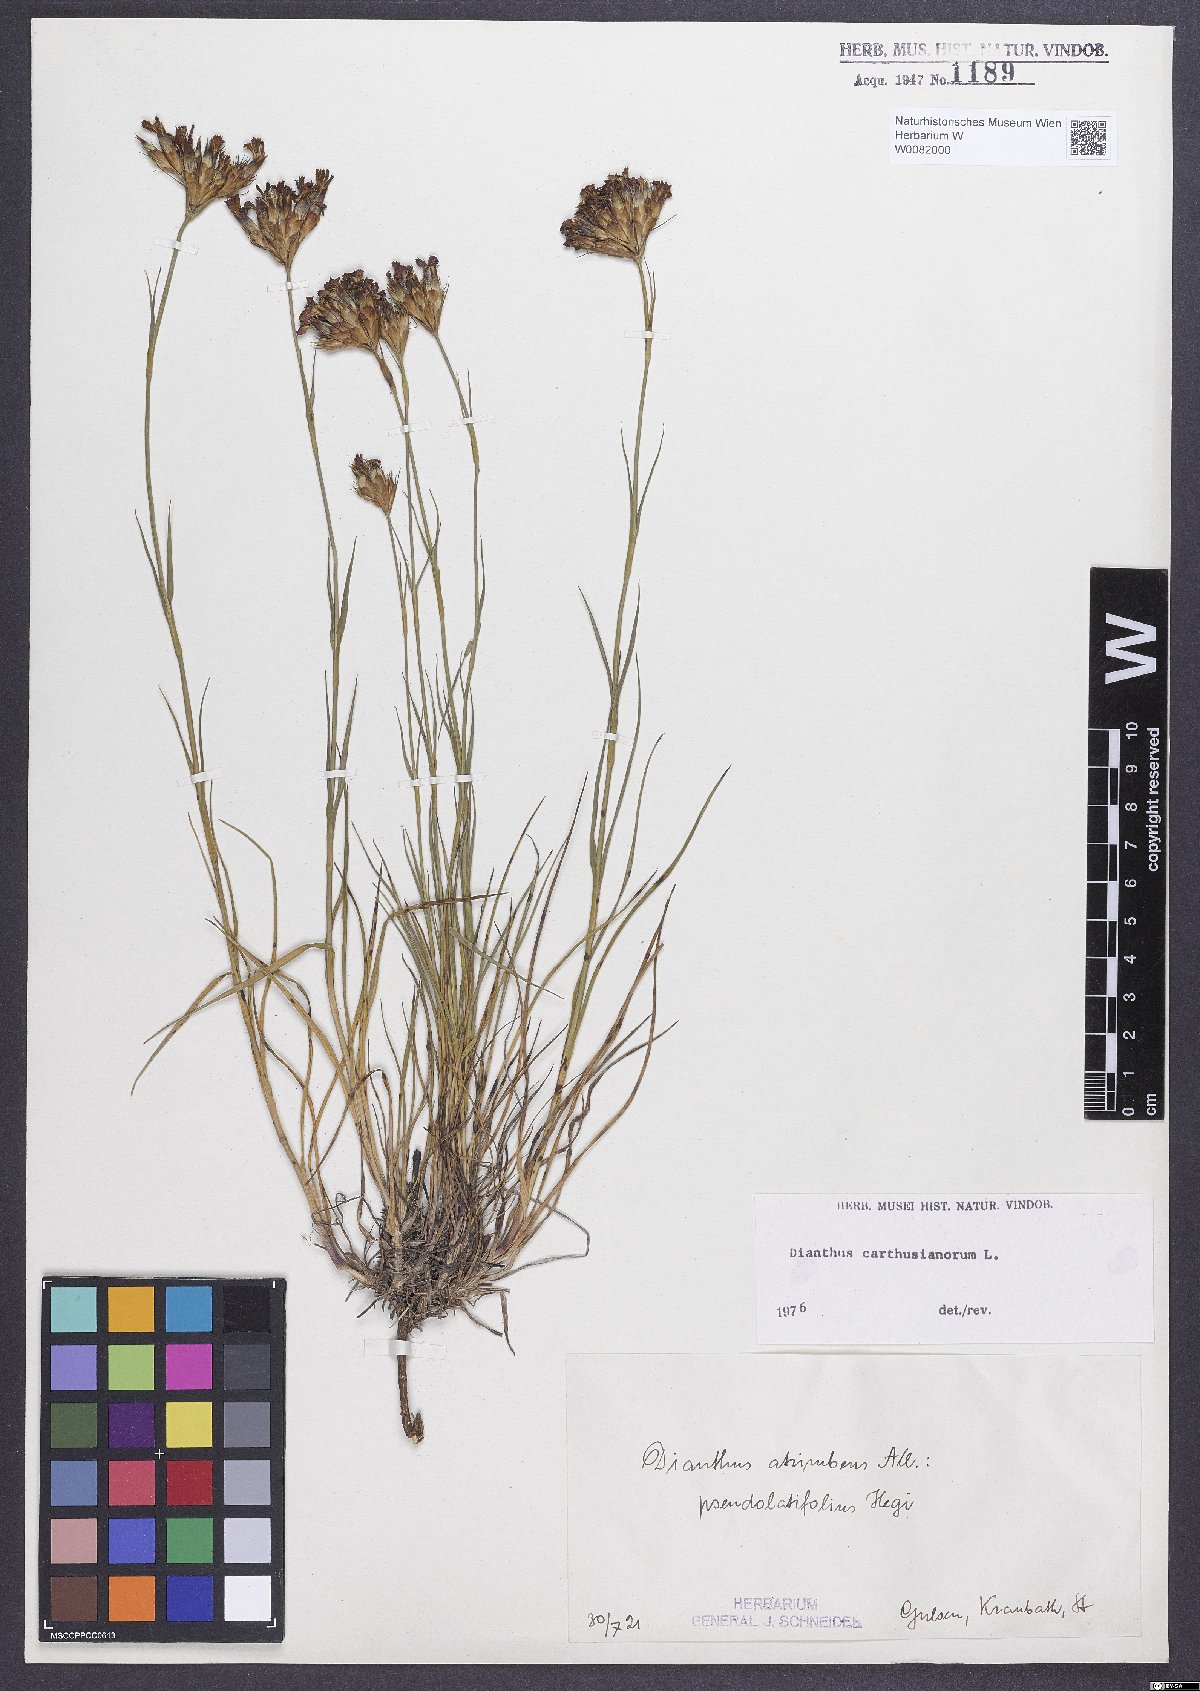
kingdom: Plantae
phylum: Tracheophyta
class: Magnoliopsida
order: Caryophyllales
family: Caryophyllaceae
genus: Dianthus
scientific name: Dianthus carthusianorum
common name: Carthusian pink
